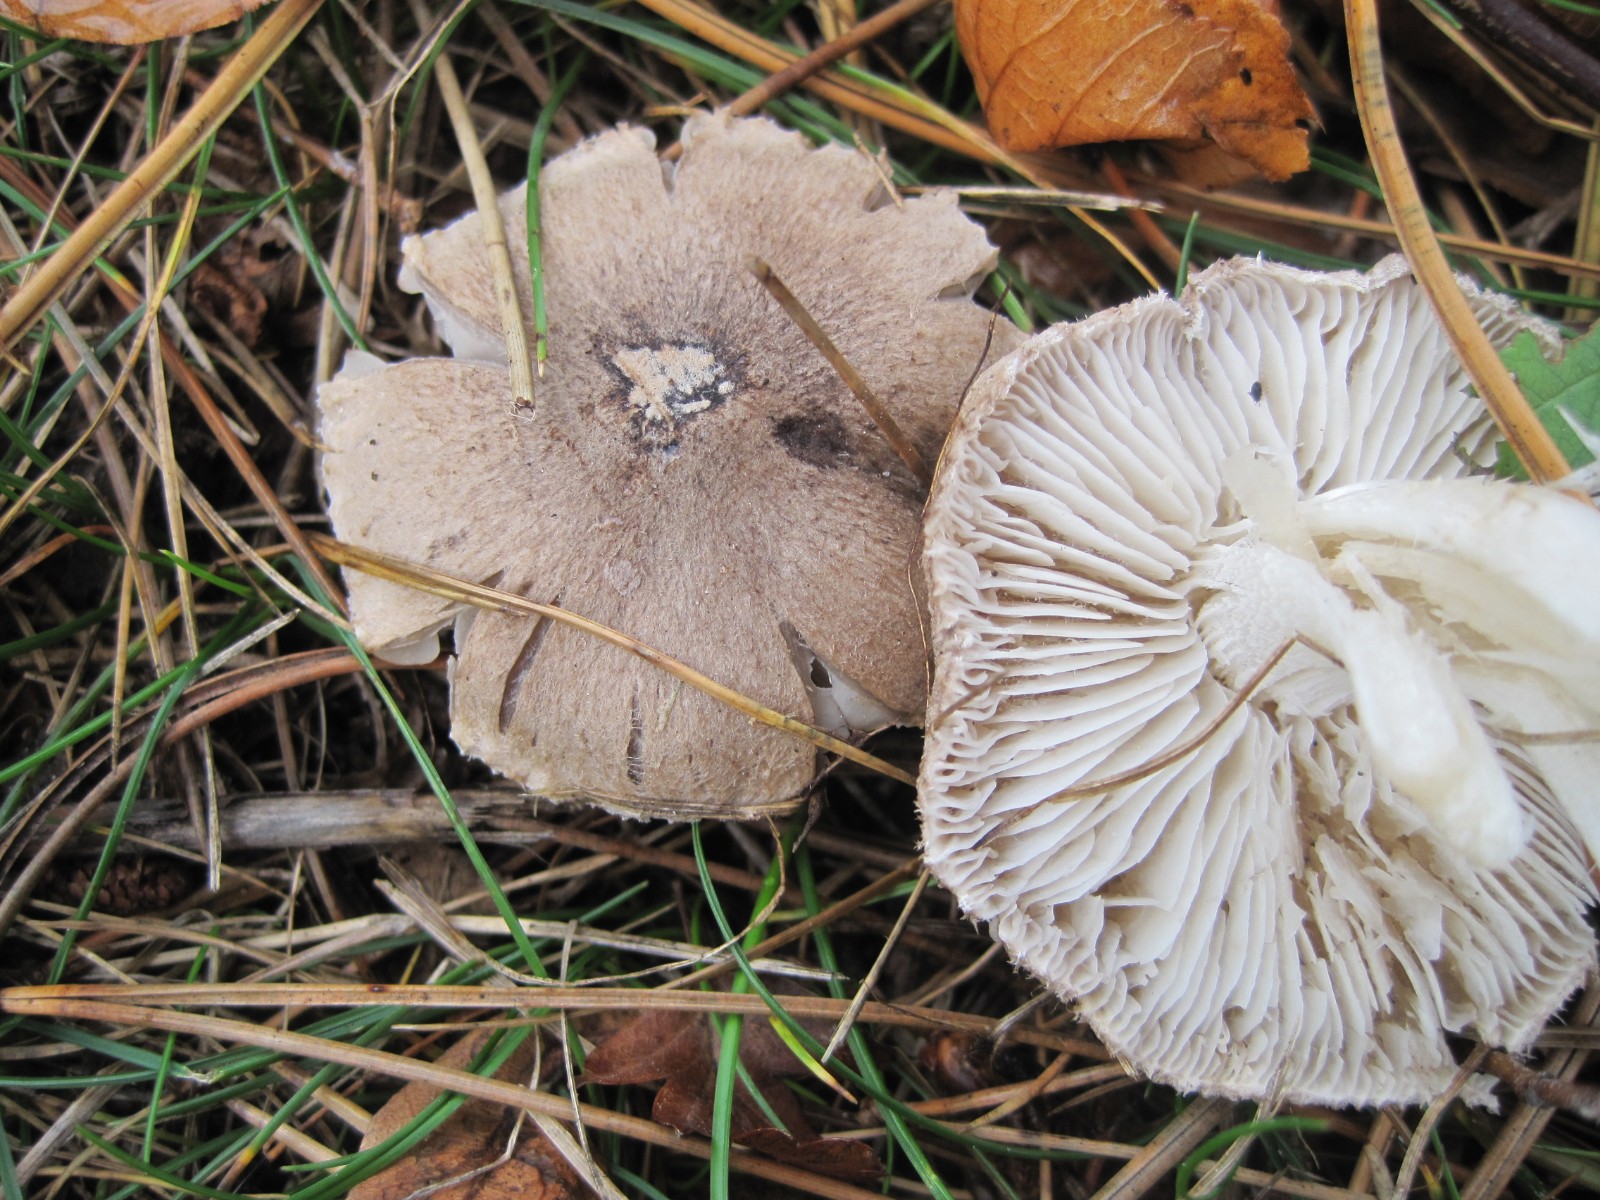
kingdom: Fungi
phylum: Basidiomycota
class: Agaricomycetes
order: Agaricales
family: Tricholomataceae
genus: Tricholoma
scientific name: Tricholoma terreum
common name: jordfarvet ridderhat
